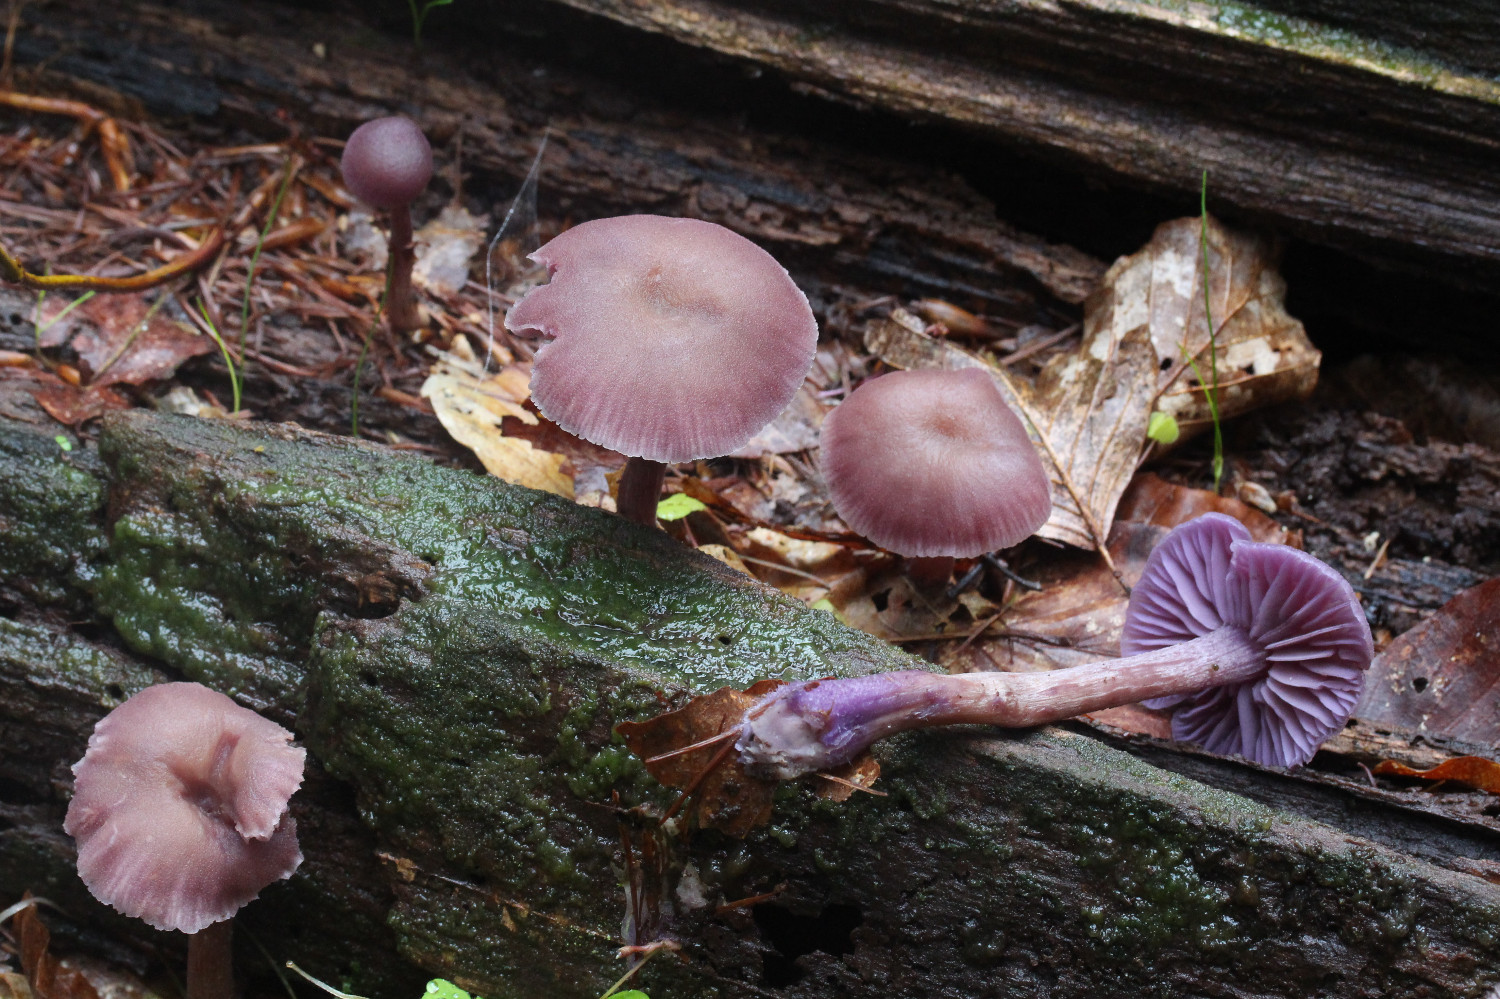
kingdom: Fungi
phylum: Basidiomycota
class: Agaricomycetes
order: Agaricales
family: Hydnangiaceae
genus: Laccaria
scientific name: Laccaria amethystina
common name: violet ametysthat
